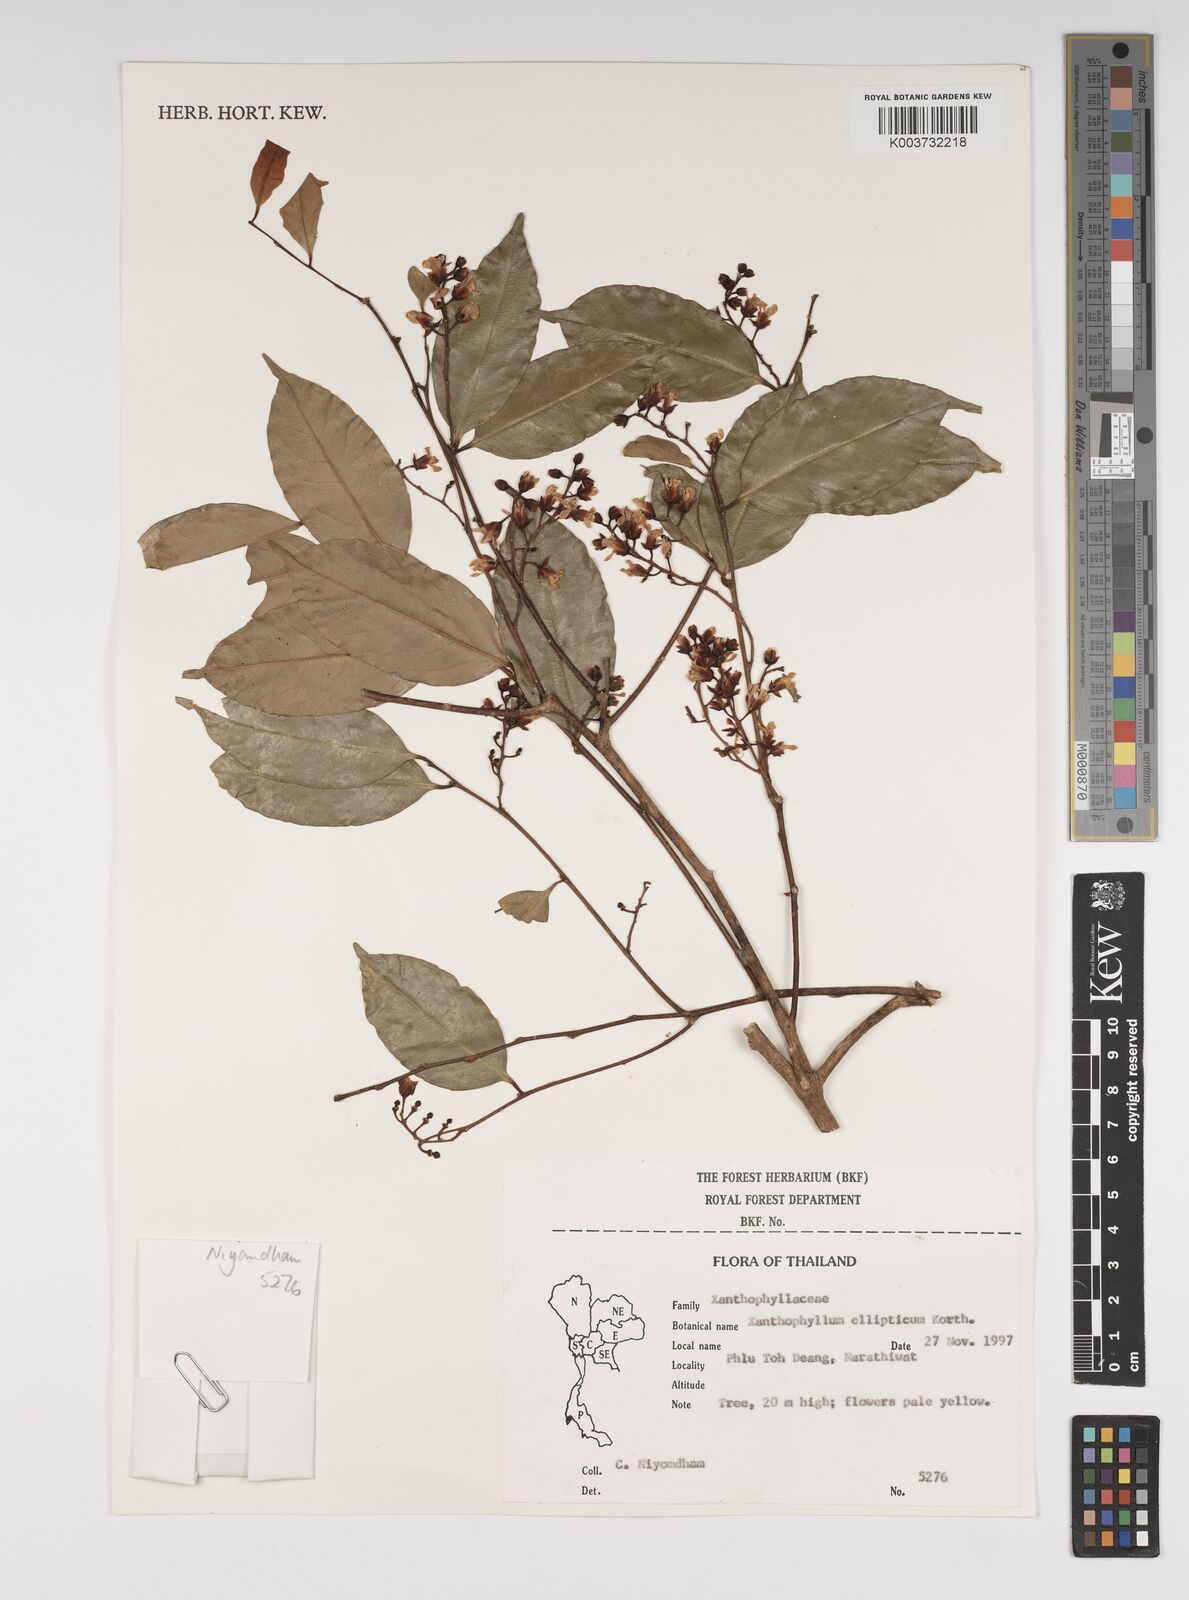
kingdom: Plantae
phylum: Tracheophyta
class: Magnoliopsida
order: Fabales
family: Polygalaceae
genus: Xanthophyllum
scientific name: Xanthophyllum ellipticum
